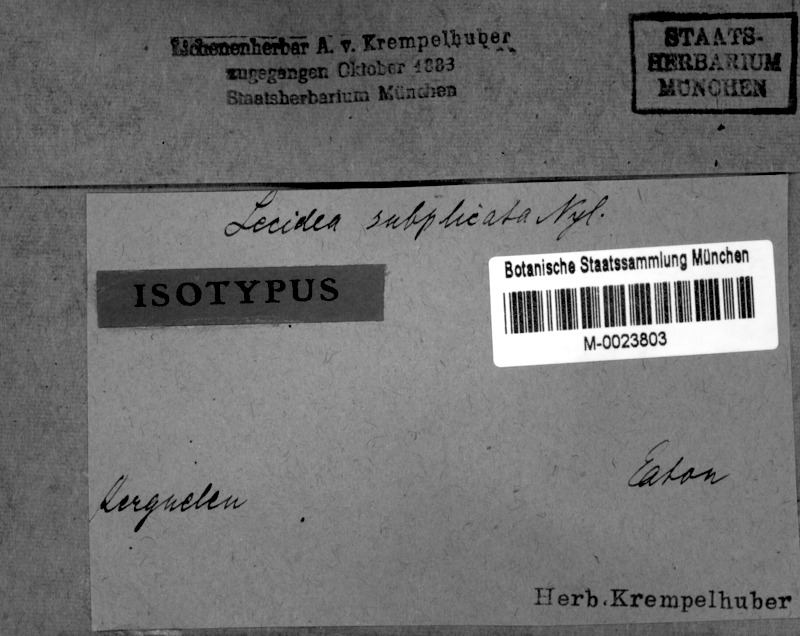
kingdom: Fungi
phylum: Ascomycota
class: Lecanoromycetes
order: Caliciales
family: Caliciaceae
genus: Amandinea
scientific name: Amandinea subplicata
